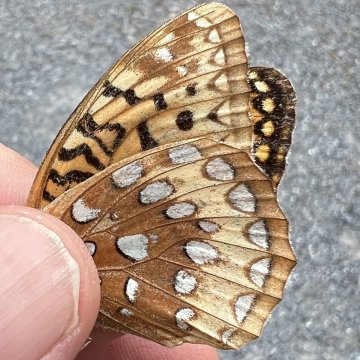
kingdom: Animalia
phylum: Arthropoda
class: Insecta
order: Lepidoptera
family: Nymphalidae
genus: Speyeria
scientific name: Speyeria cybele
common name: Great Spangled Fritillary
